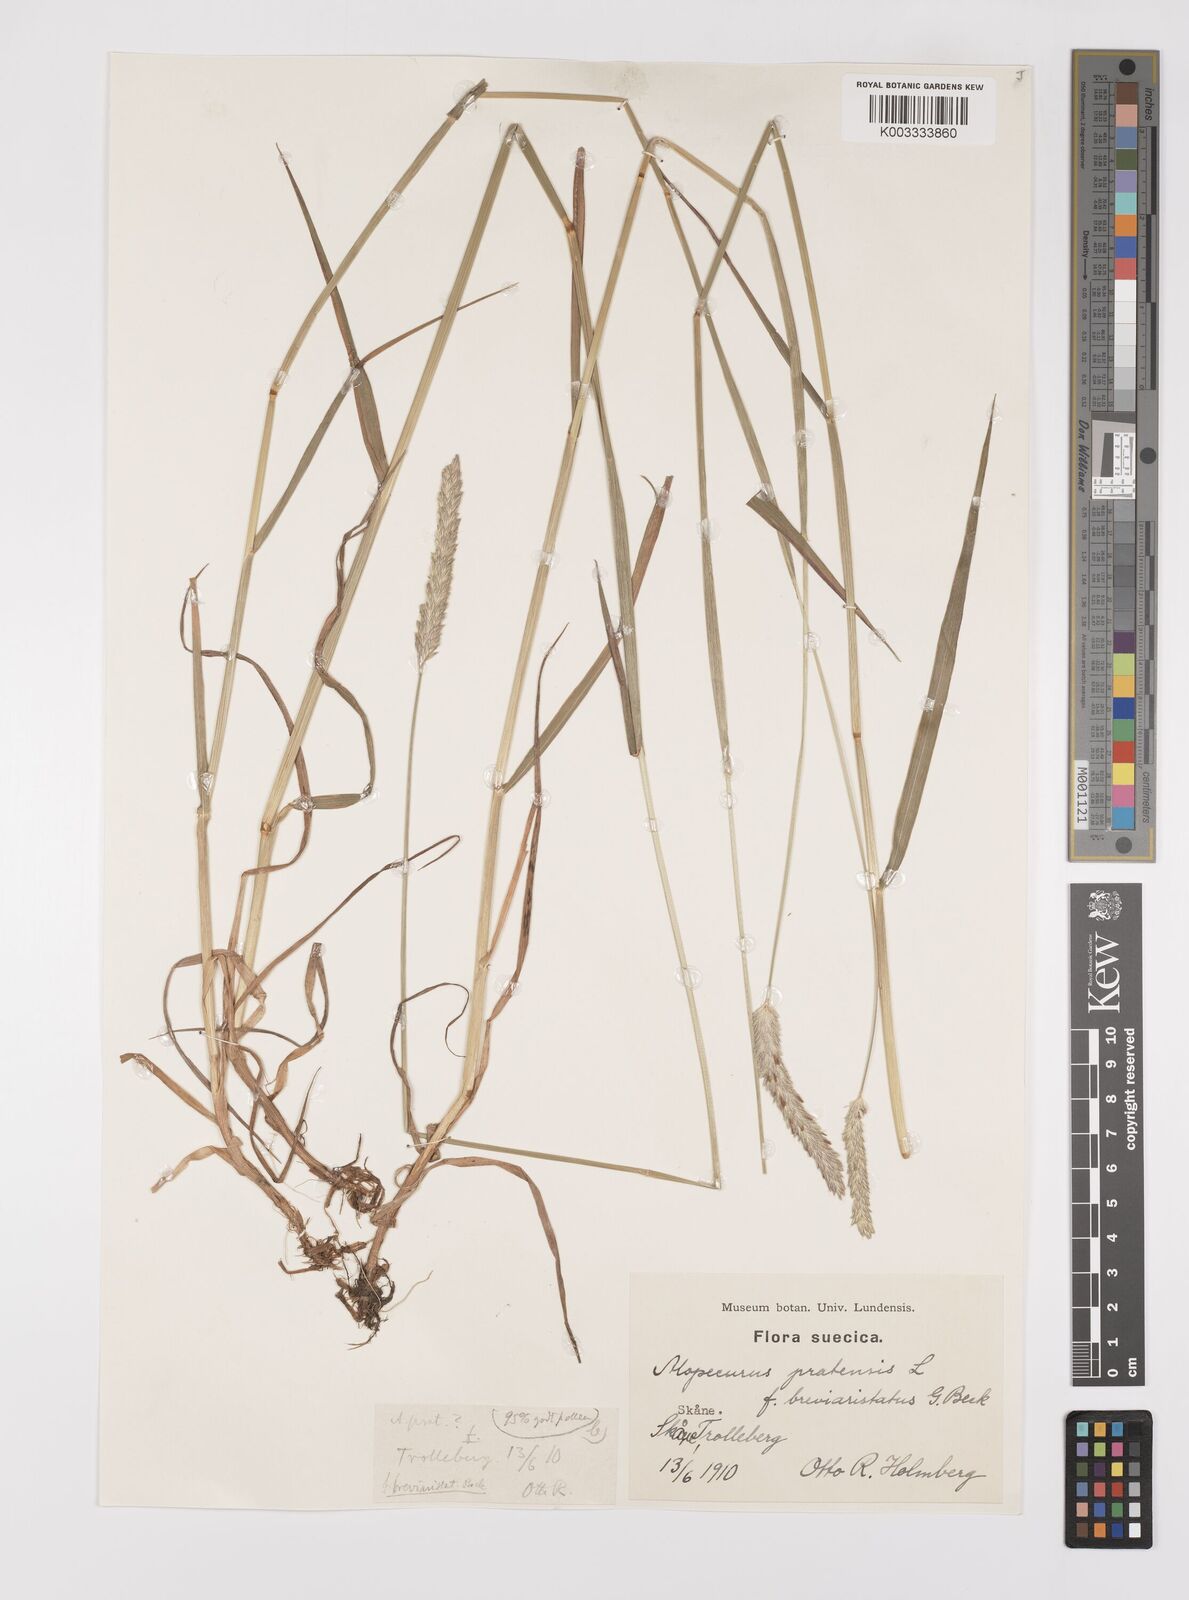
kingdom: Plantae
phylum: Tracheophyta
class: Liliopsida
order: Poales
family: Poaceae
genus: Alopecurus
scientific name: Alopecurus pratensis
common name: Meadow foxtail
